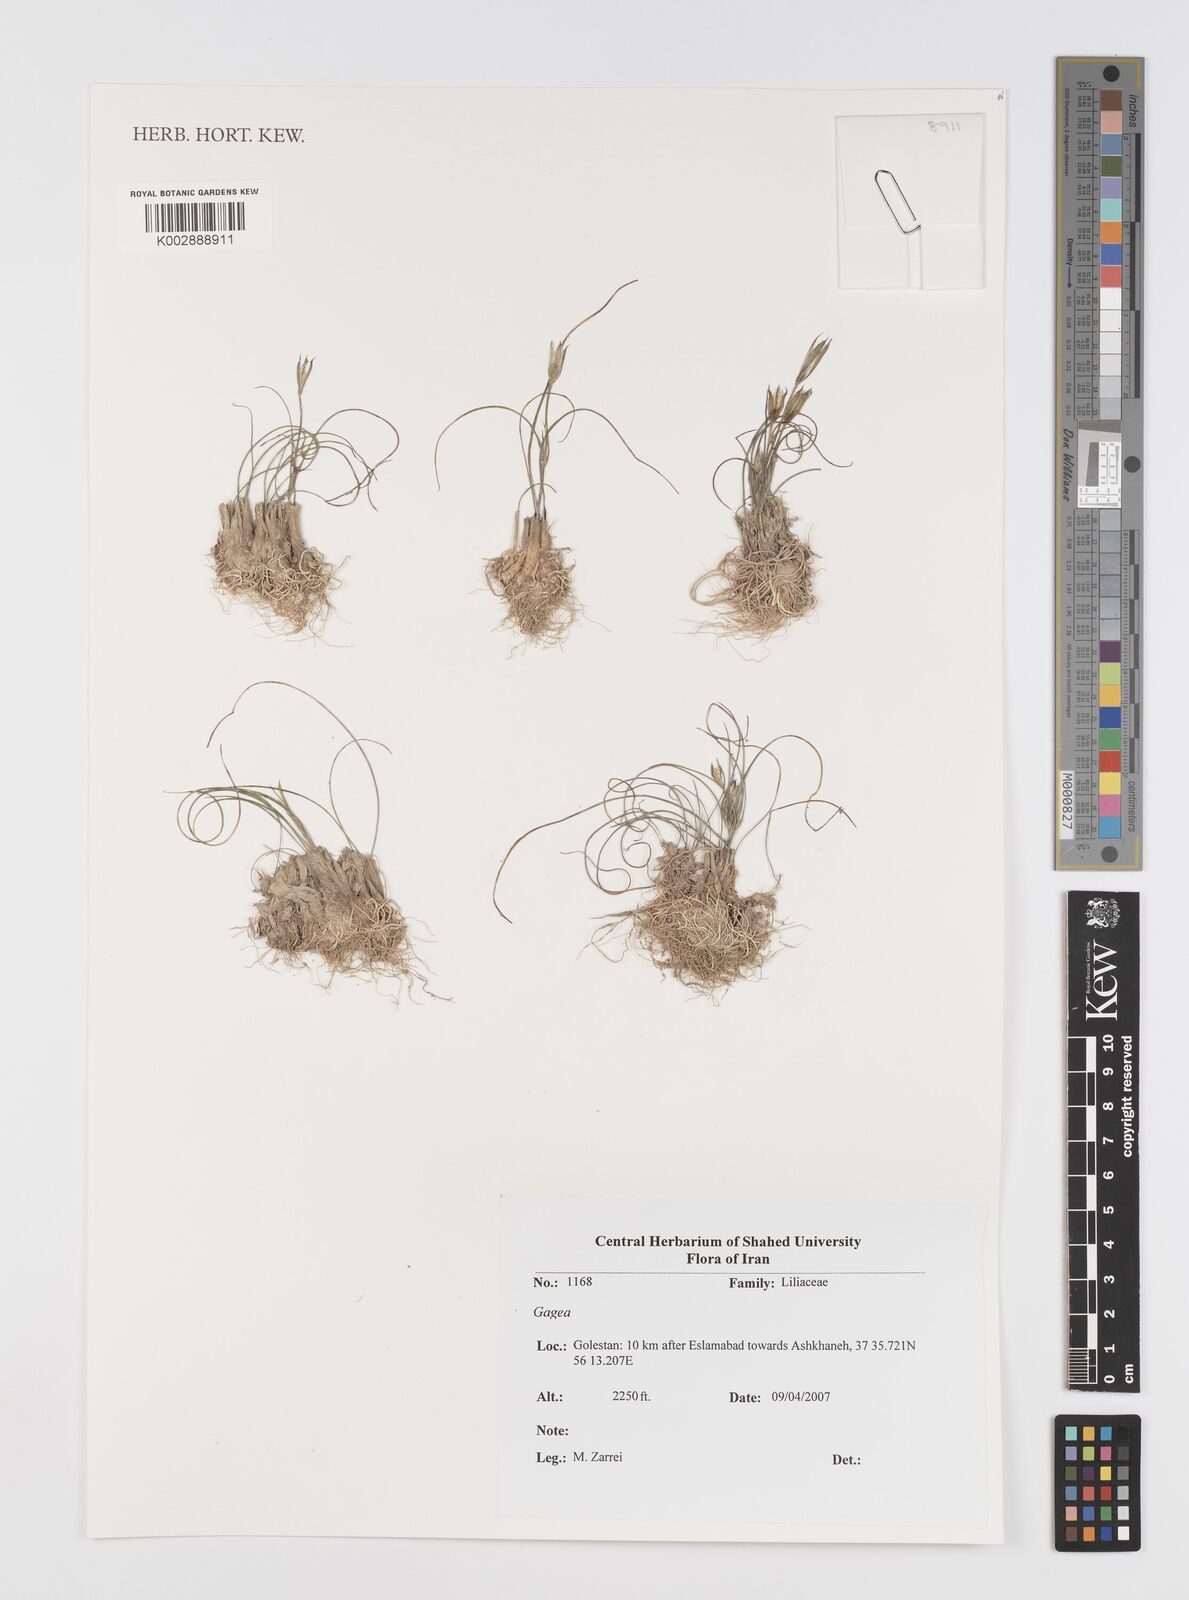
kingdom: Plantae
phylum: Tracheophyta
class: Liliopsida
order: Liliales
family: Liliaceae
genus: Gagea
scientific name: Gagea
